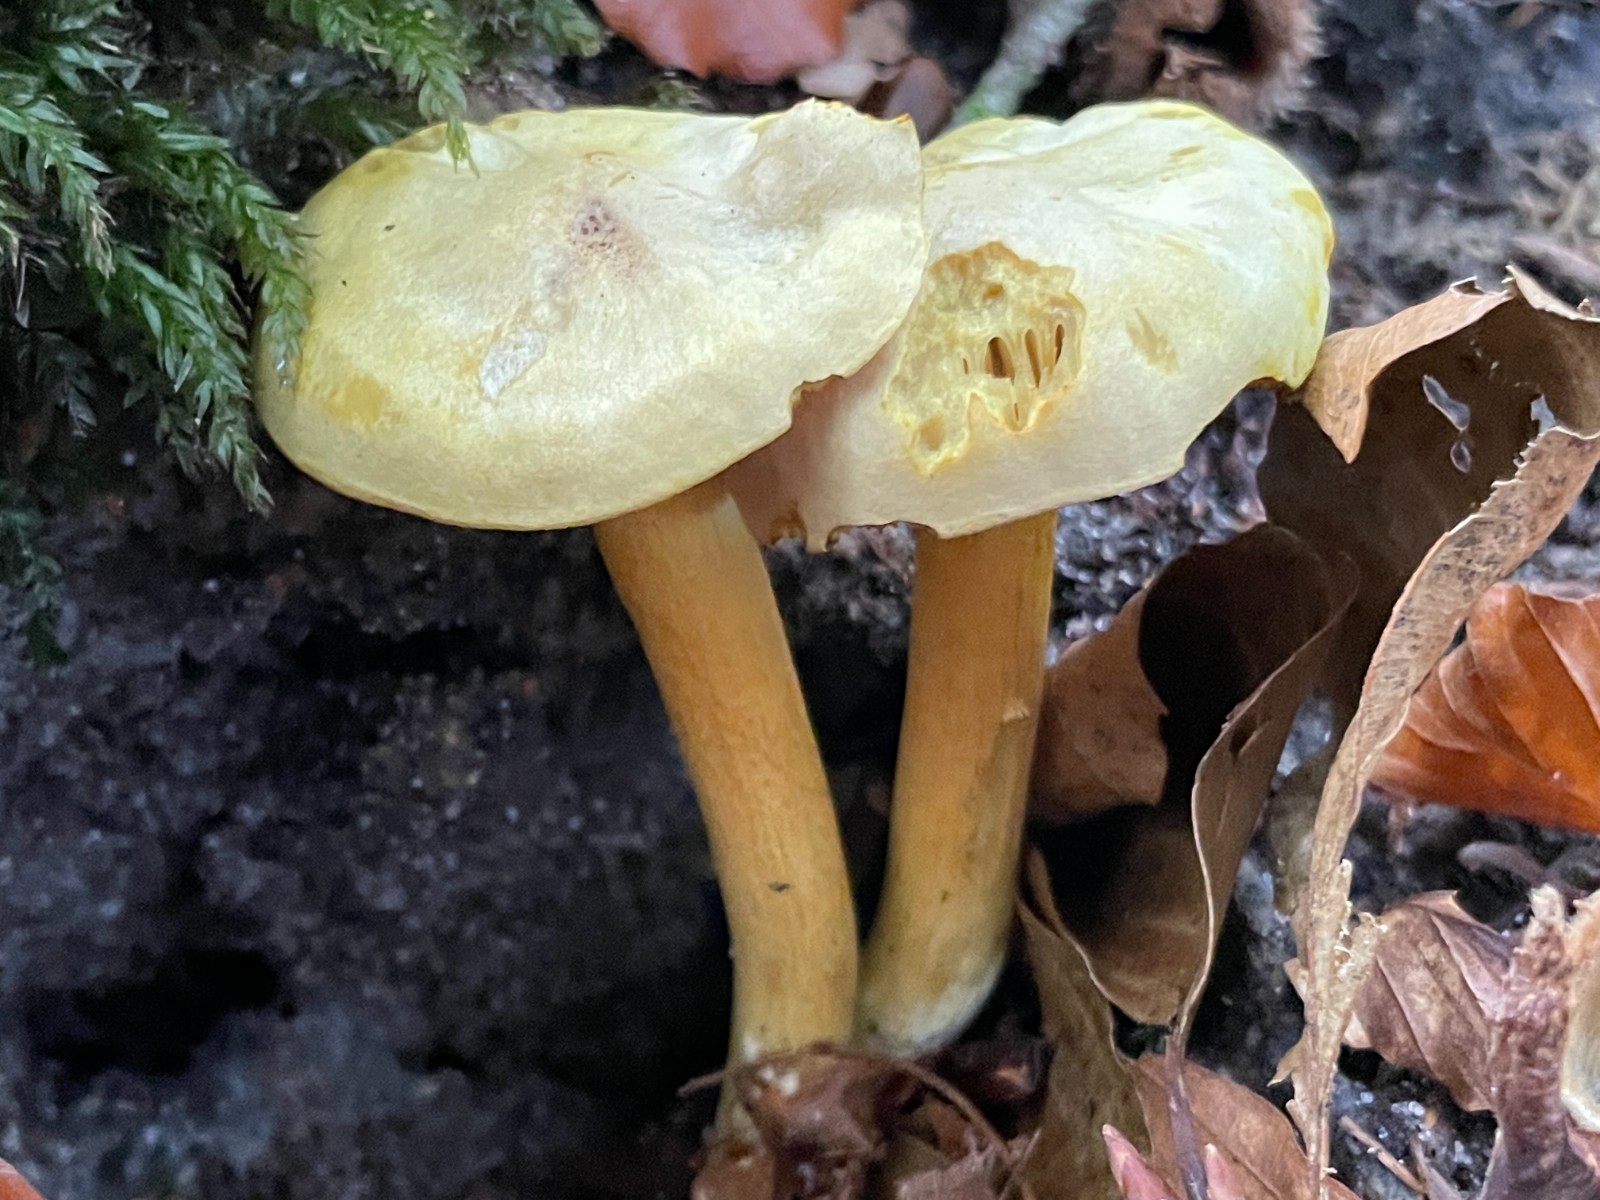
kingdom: Fungi
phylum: Basidiomycota
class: Agaricomycetes
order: Agaricales
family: Tricholomataceae
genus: Tricholoma
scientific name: Tricholoma sulphureum
